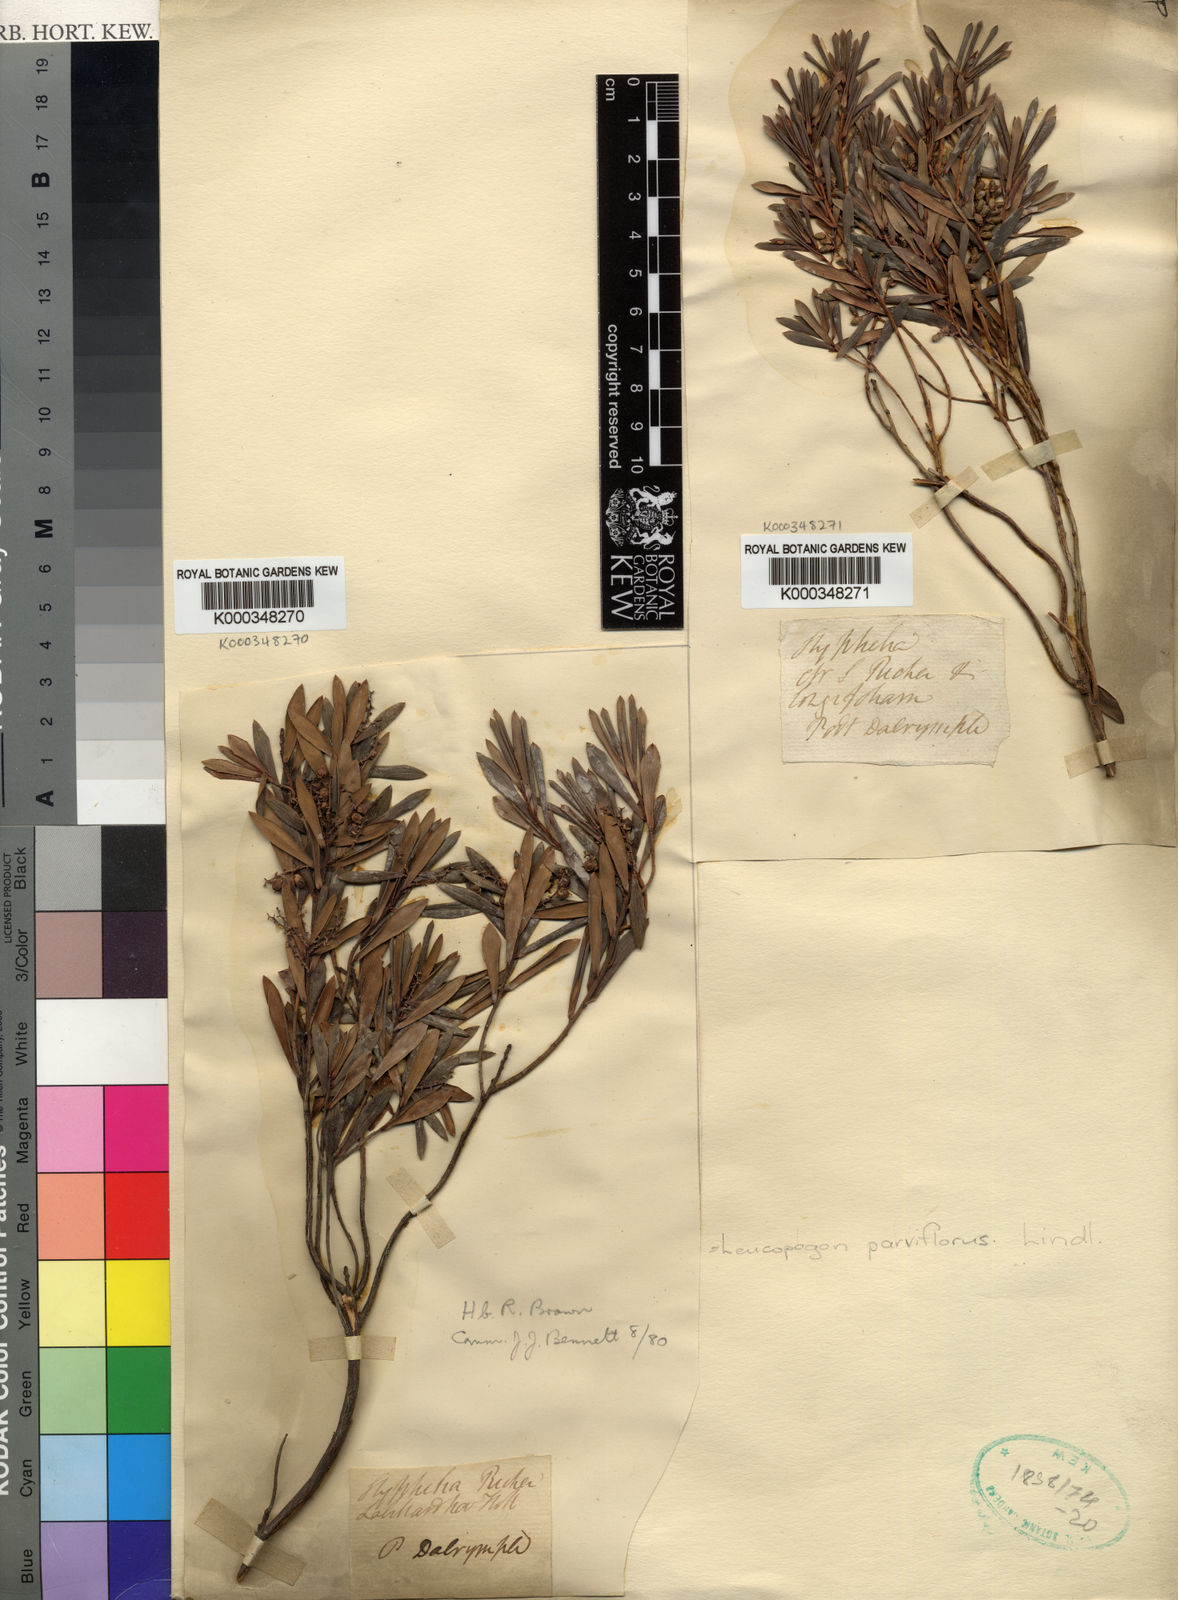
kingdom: Plantae
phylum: Tracheophyta
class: Magnoliopsida
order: Ericales
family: Ericaceae
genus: Leptecophylla
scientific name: Leptecophylla parvifolia
